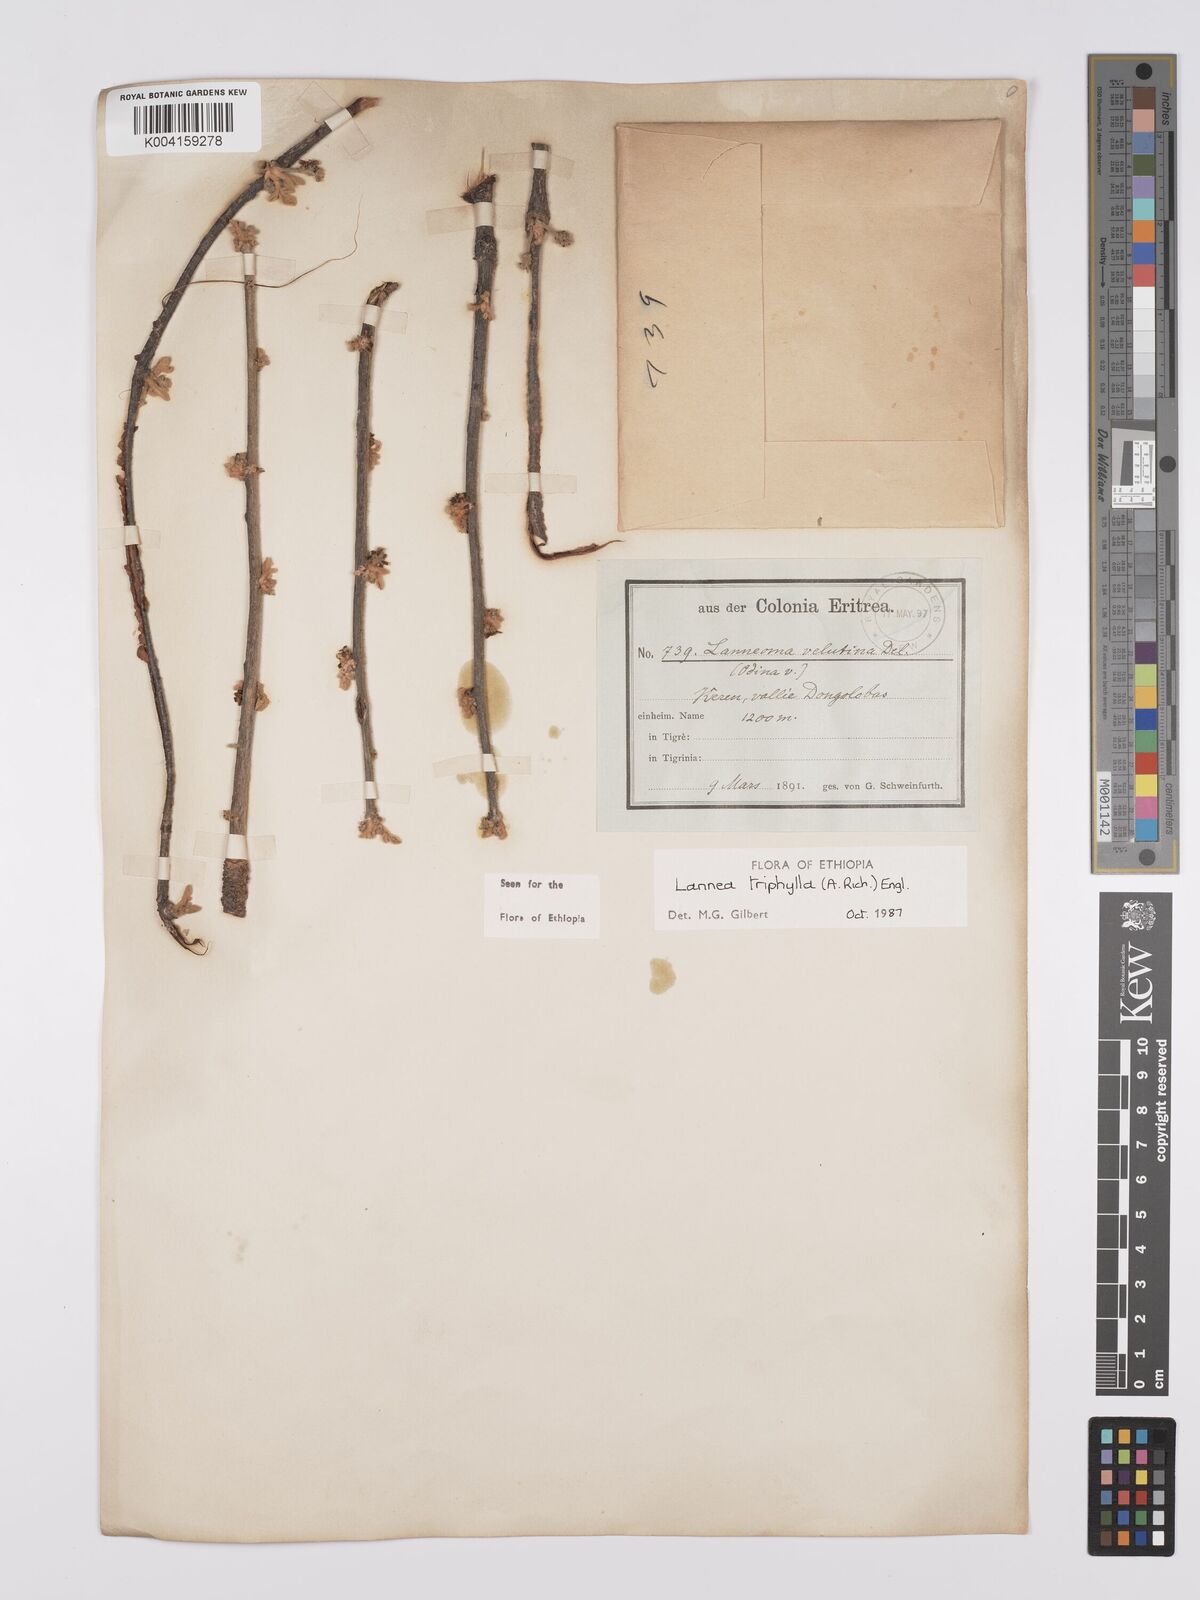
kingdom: Plantae
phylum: Tracheophyta
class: Magnoliopsida
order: Sapindales
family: Anacardiaceae
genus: Lannea
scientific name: Lannea triphylla
